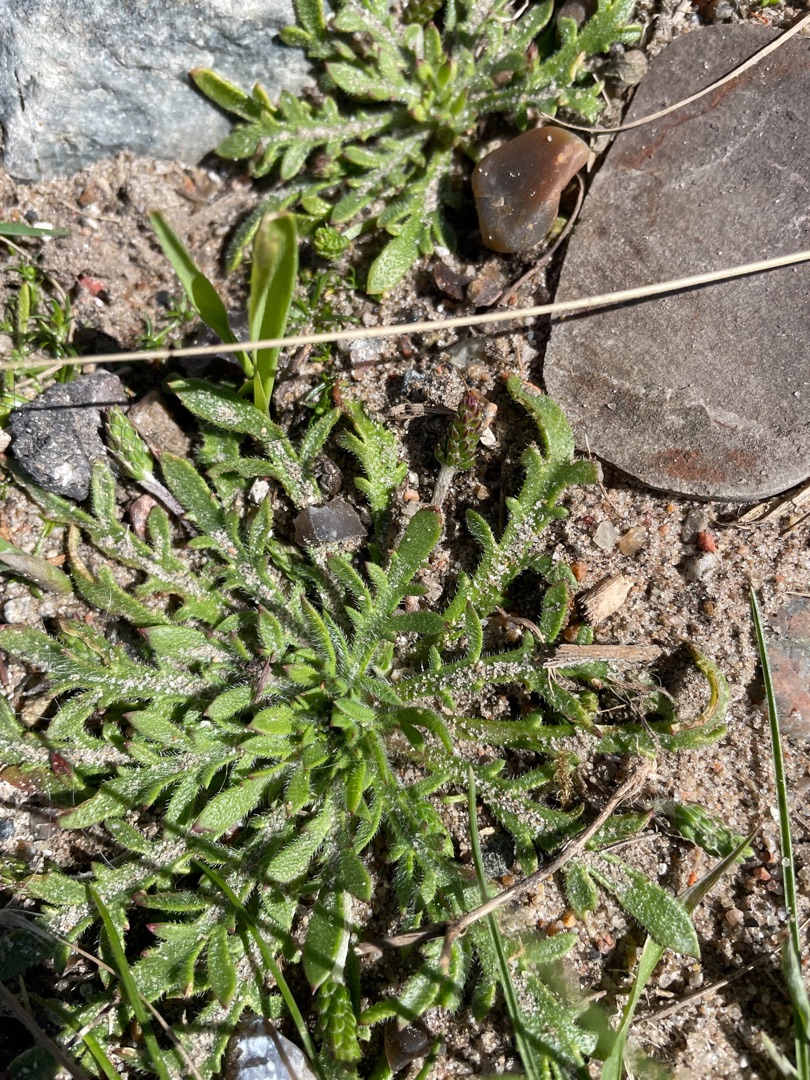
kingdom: Plantae
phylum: Tracheophyta
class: Magnoliopsida
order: Lamiales
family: Plantaginaceae
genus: Plantago
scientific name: Plantago coronopus
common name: Fliget vejbred
